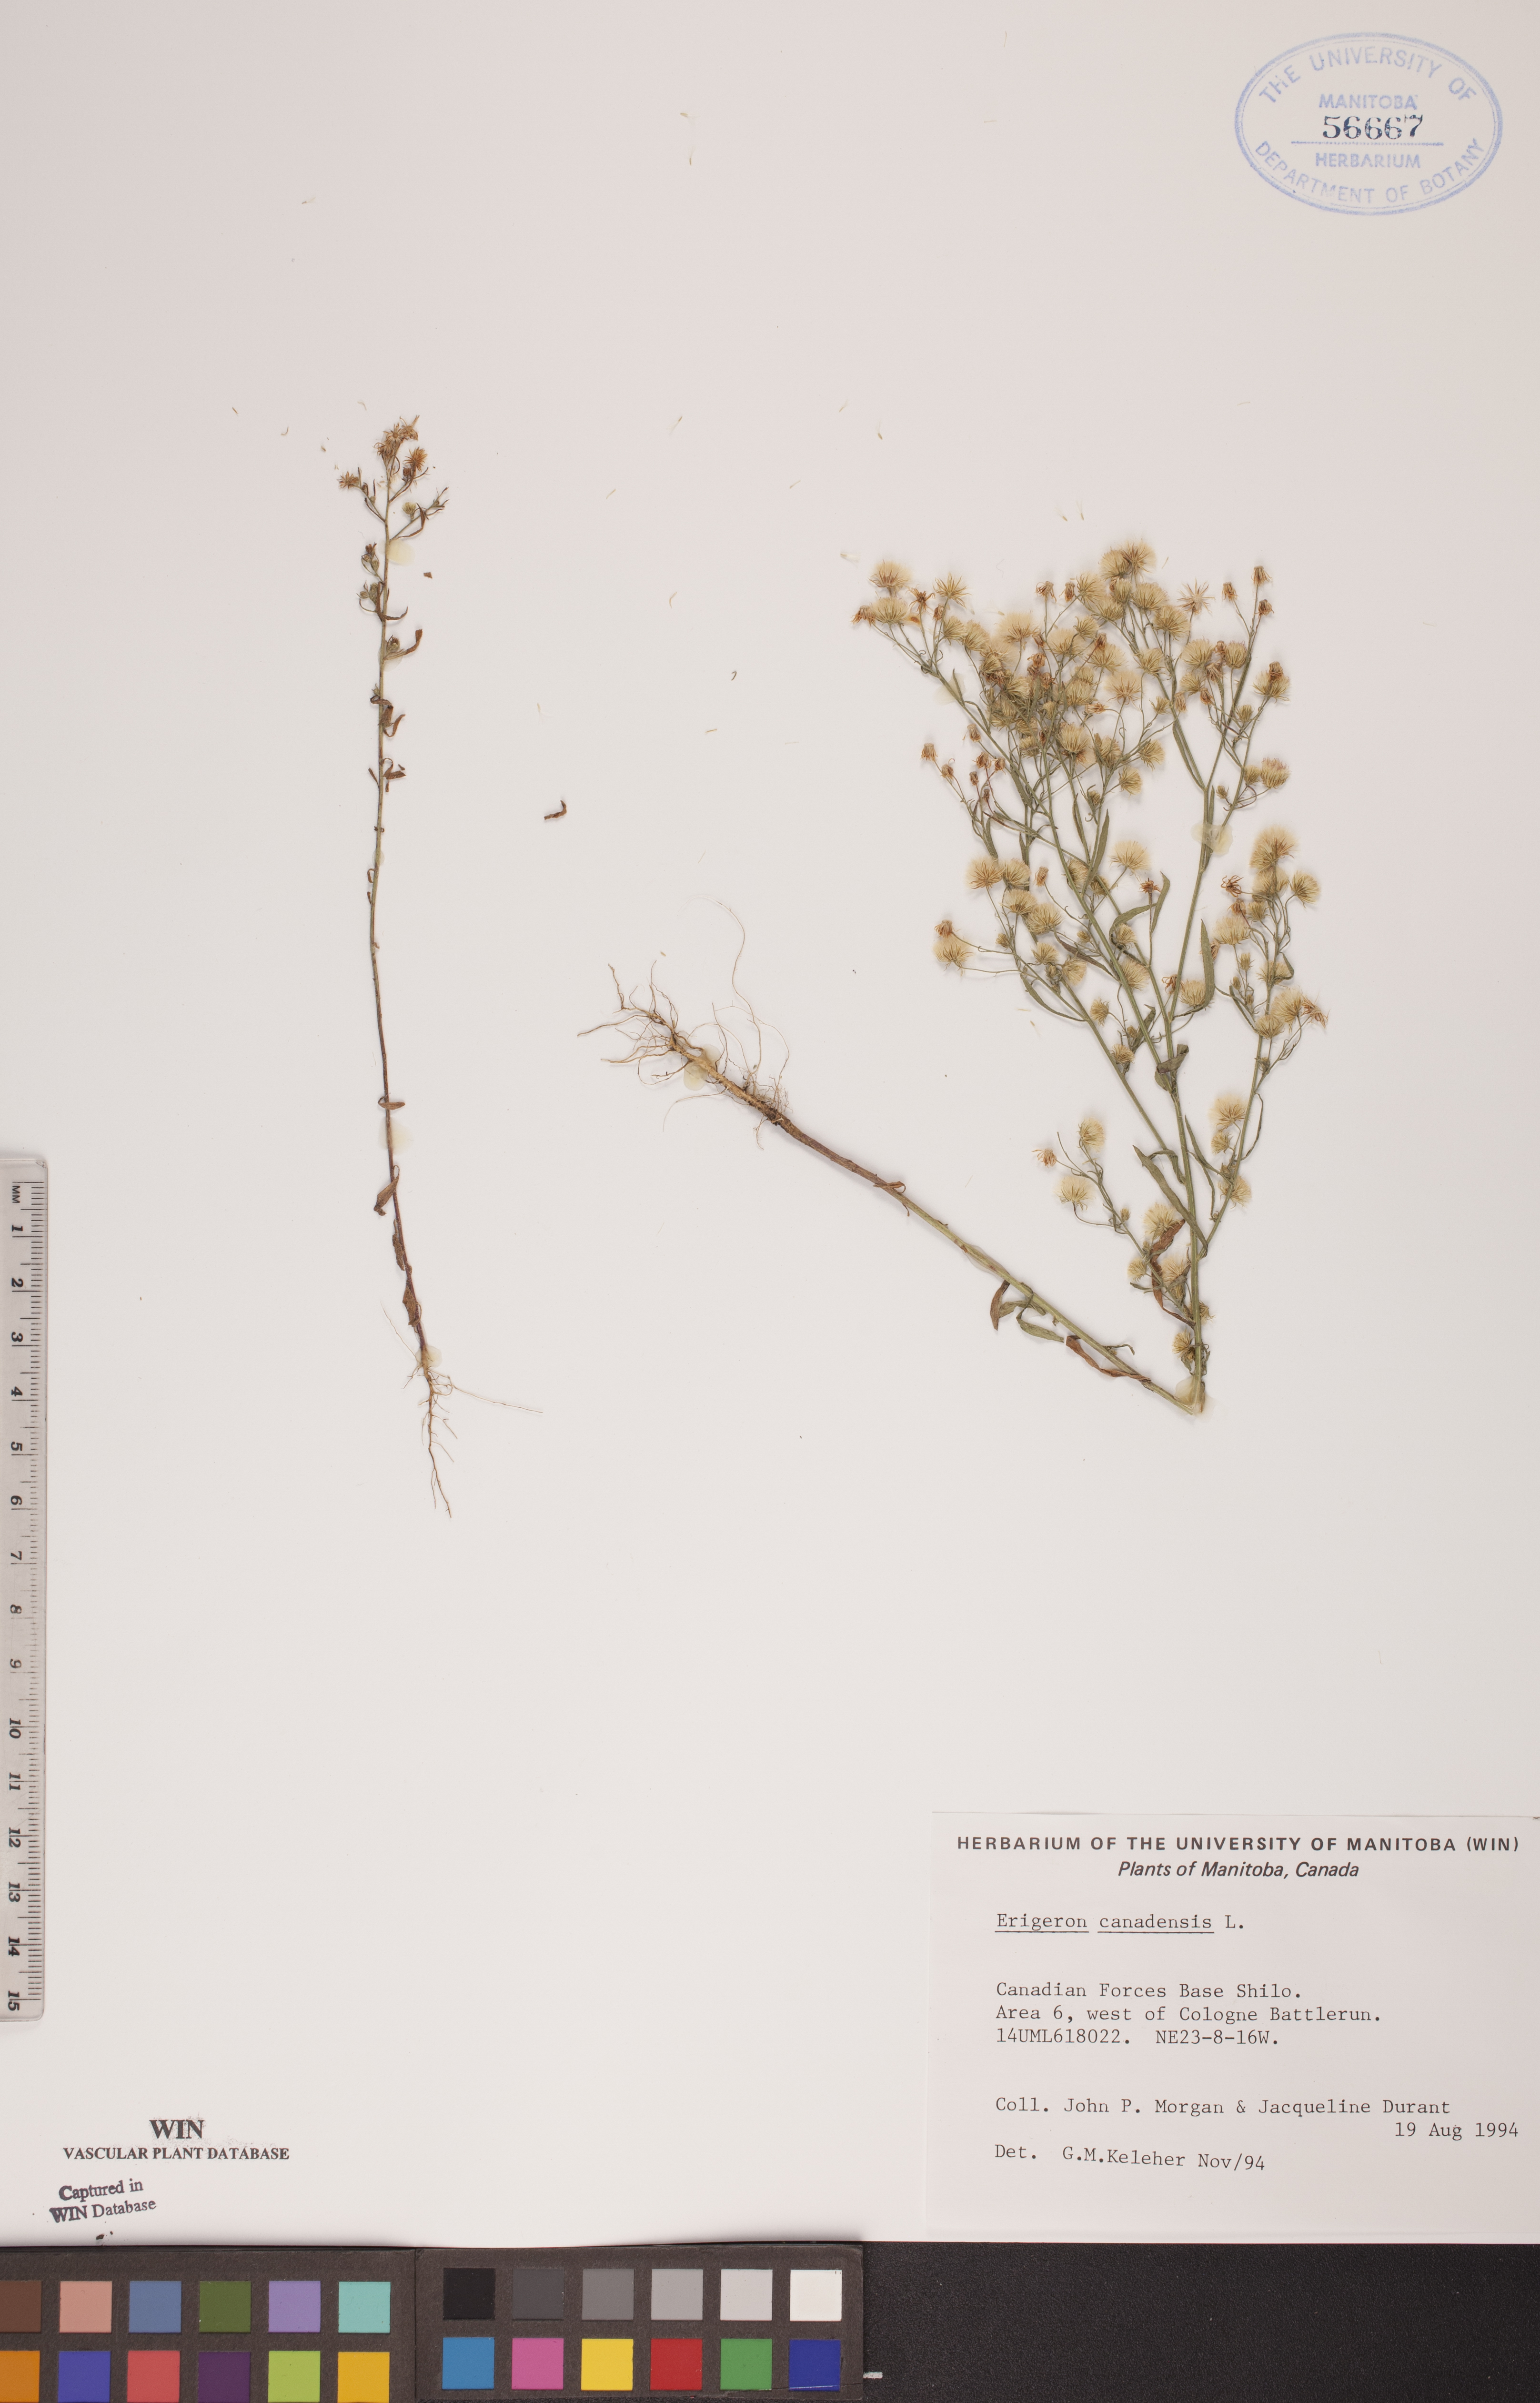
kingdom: Plantae
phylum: Tracheophyta
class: Magnoliopsida
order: Asterales
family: Asteraceae
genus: Erigeron
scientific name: Erigeron canadensis
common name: Canadian fleabane
